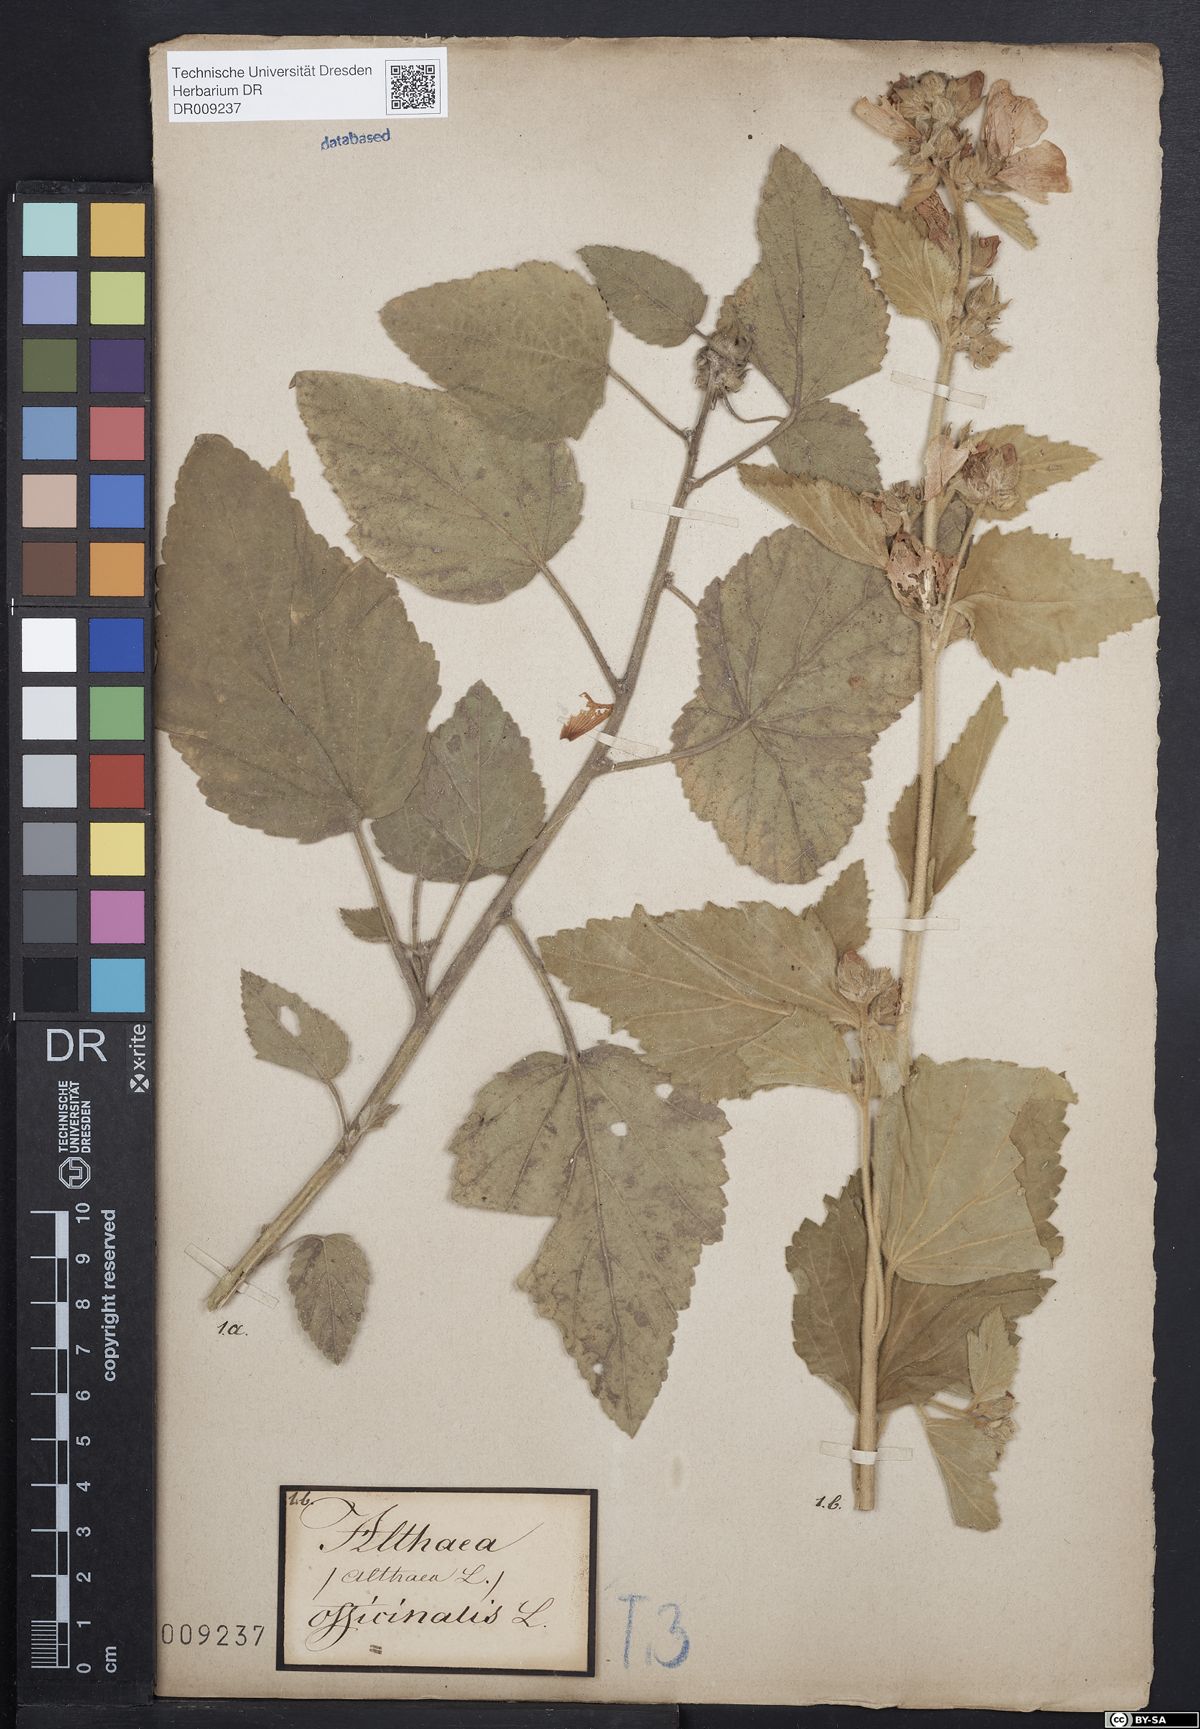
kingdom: Plantae
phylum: Tracheophyta
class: Magnoliopsida
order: Malvales
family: Malvaceae
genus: Althaea
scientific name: Althaea officinalis
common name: Marsh-mallow
